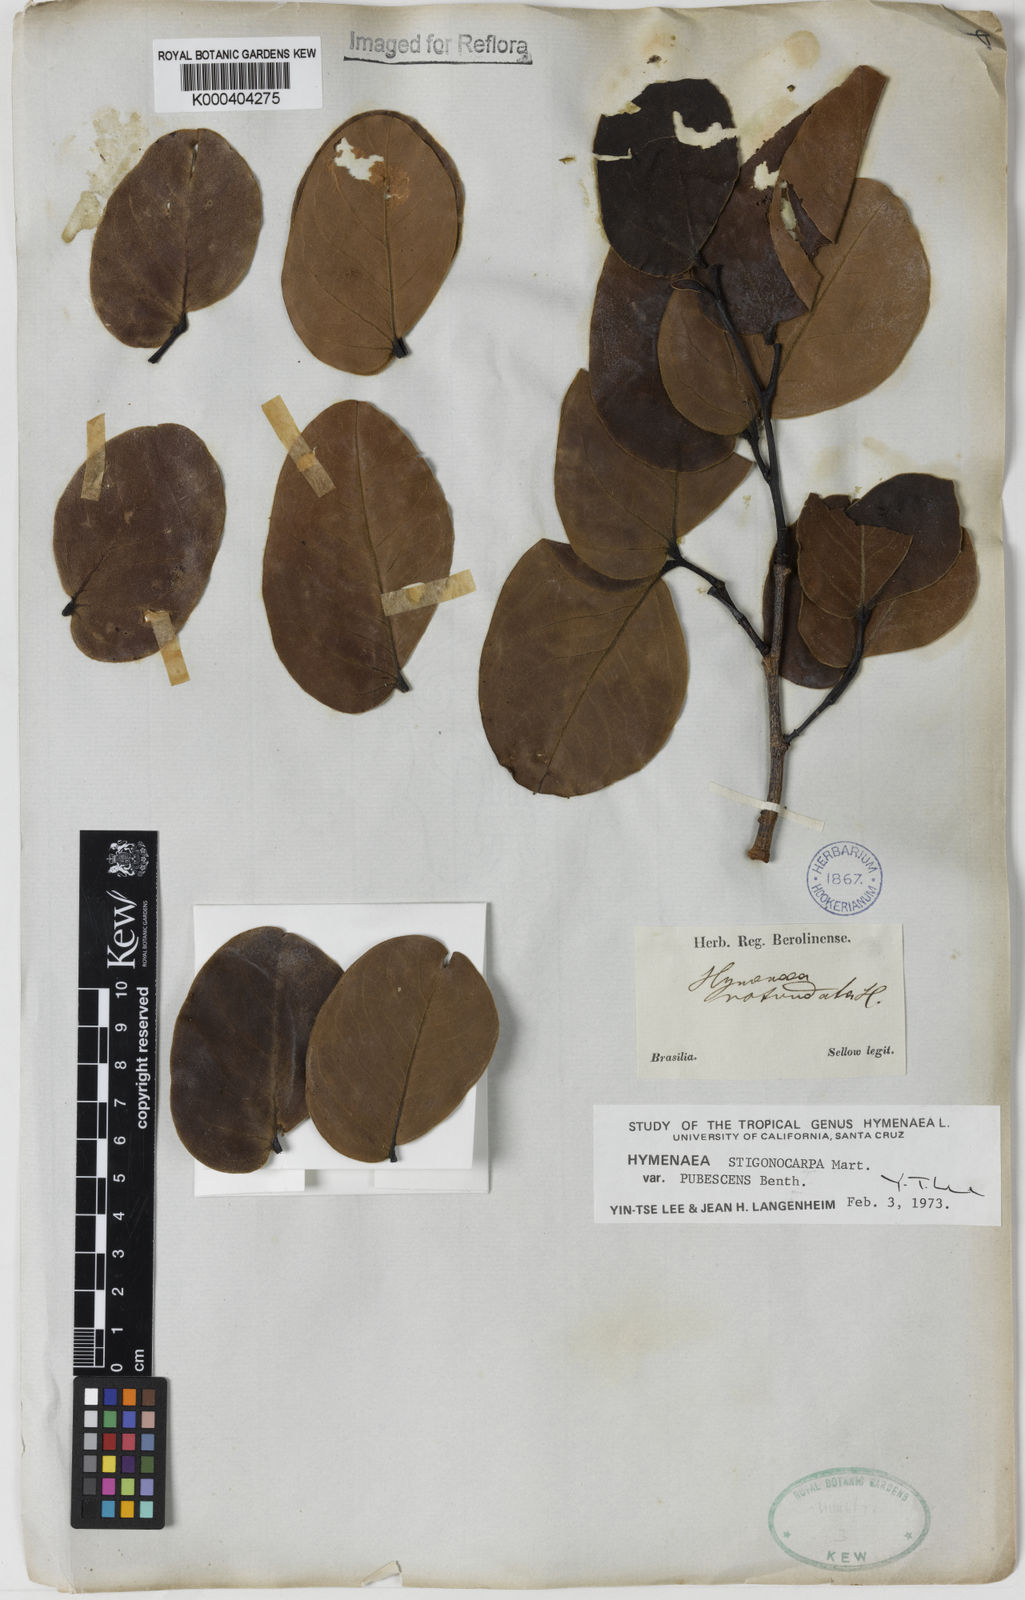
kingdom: Plantae
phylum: Tracheophyta
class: Magnoliopsida
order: Fabales
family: Fabaceae
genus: Hymenaea
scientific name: Hymenaea stigonocarpa
